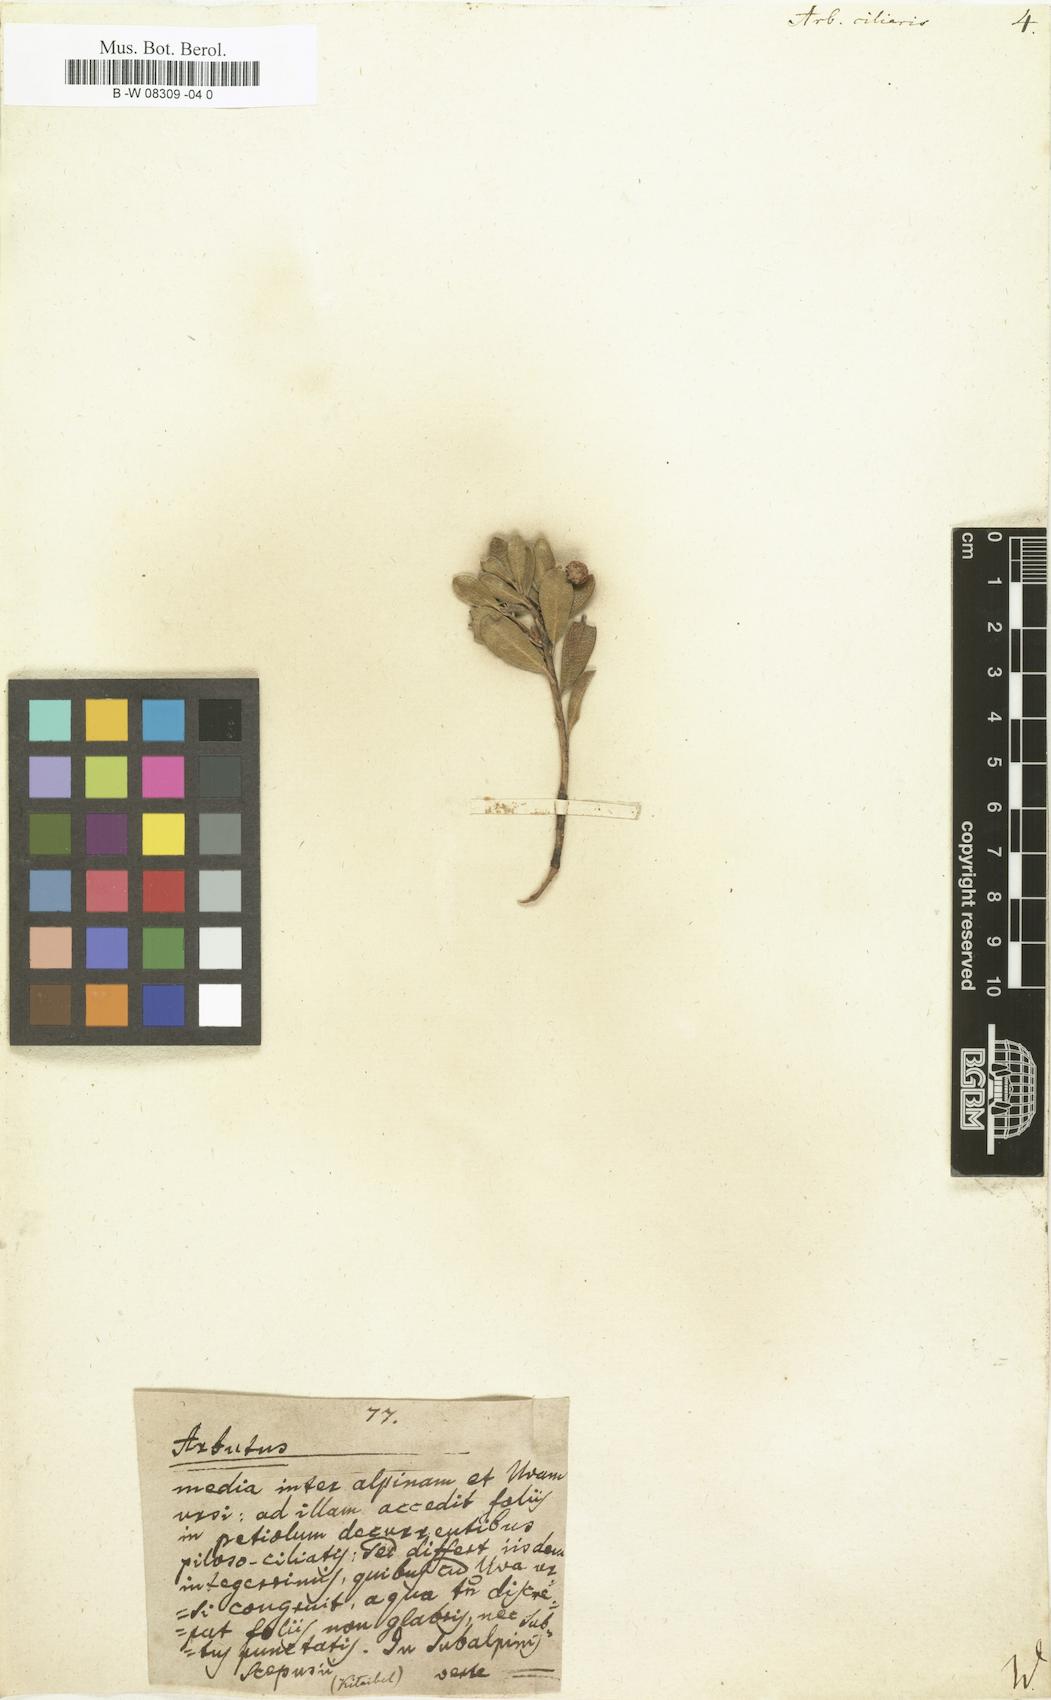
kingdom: Plantae
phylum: Tracheophyta
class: Magnoliopsida
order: Ericales
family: Ericaceae
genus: Arbutus
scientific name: Arbutus
